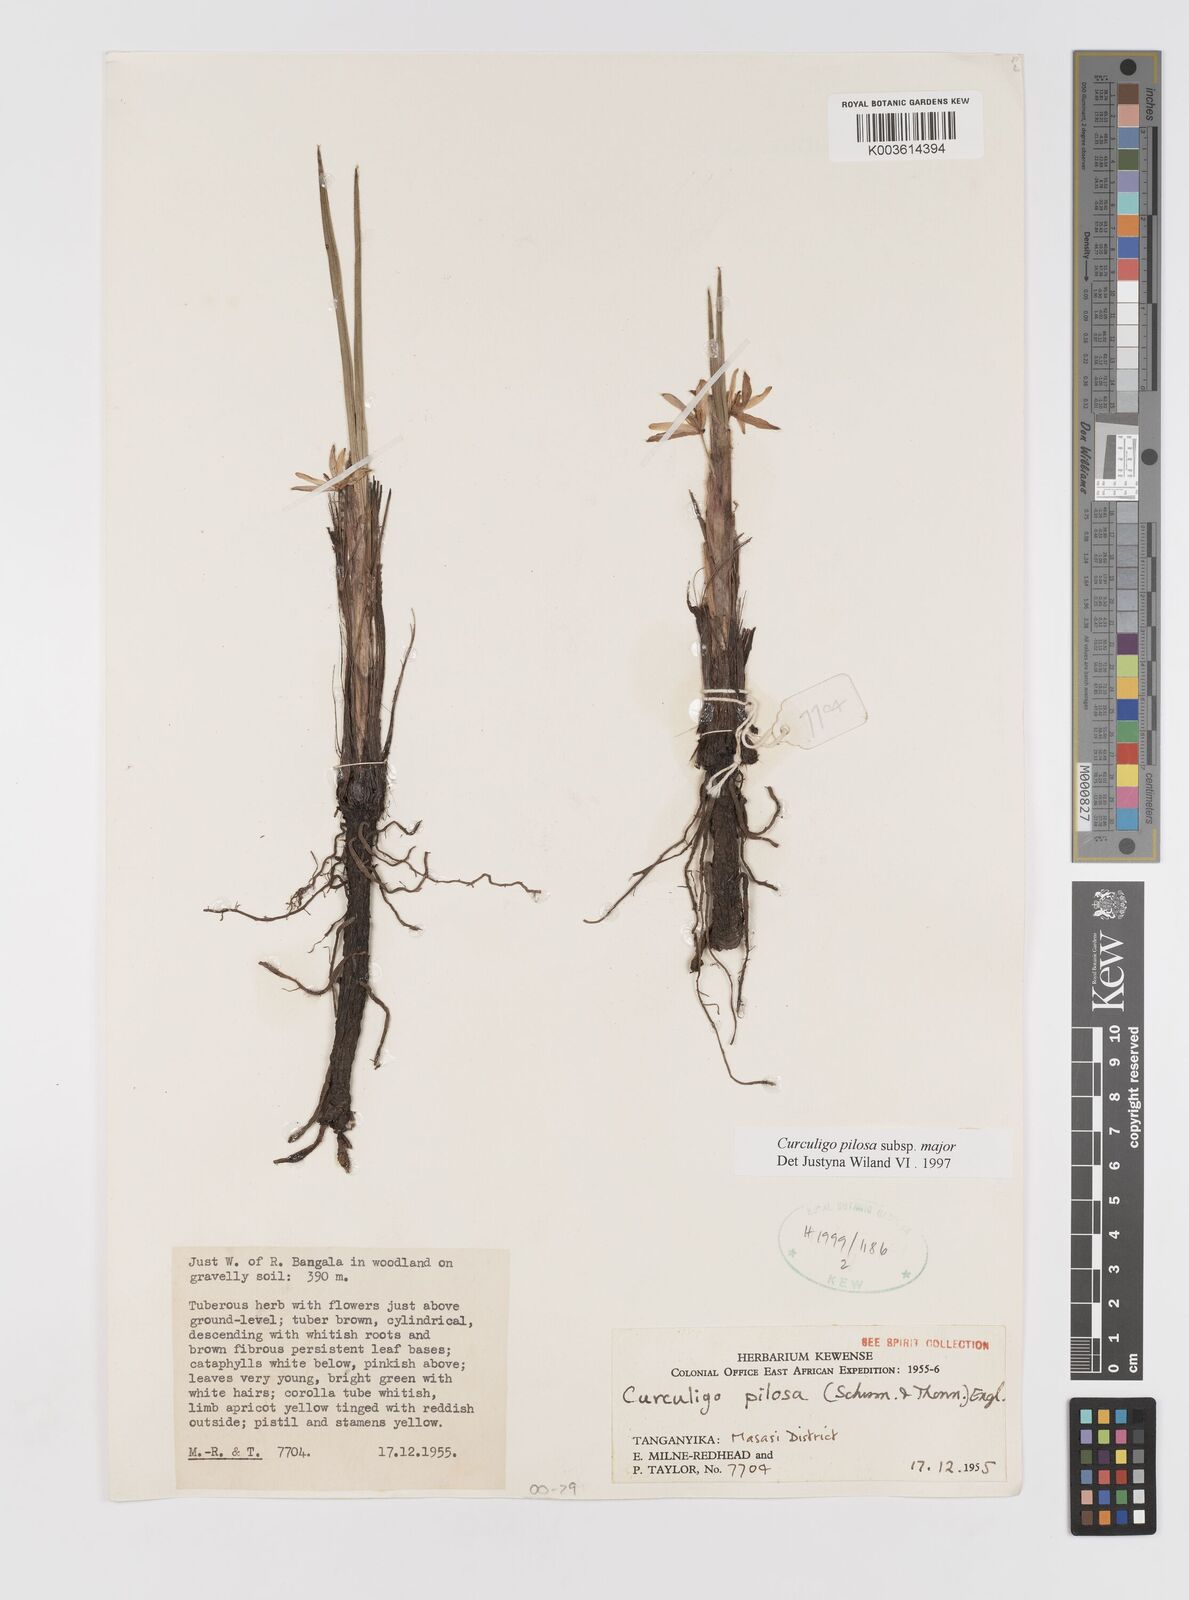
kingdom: Plantae
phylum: Tracheophyta
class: Liliopsida
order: Asparagales
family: Hypoxidaceae
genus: Curculigo
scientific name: Curculigo pilosa
